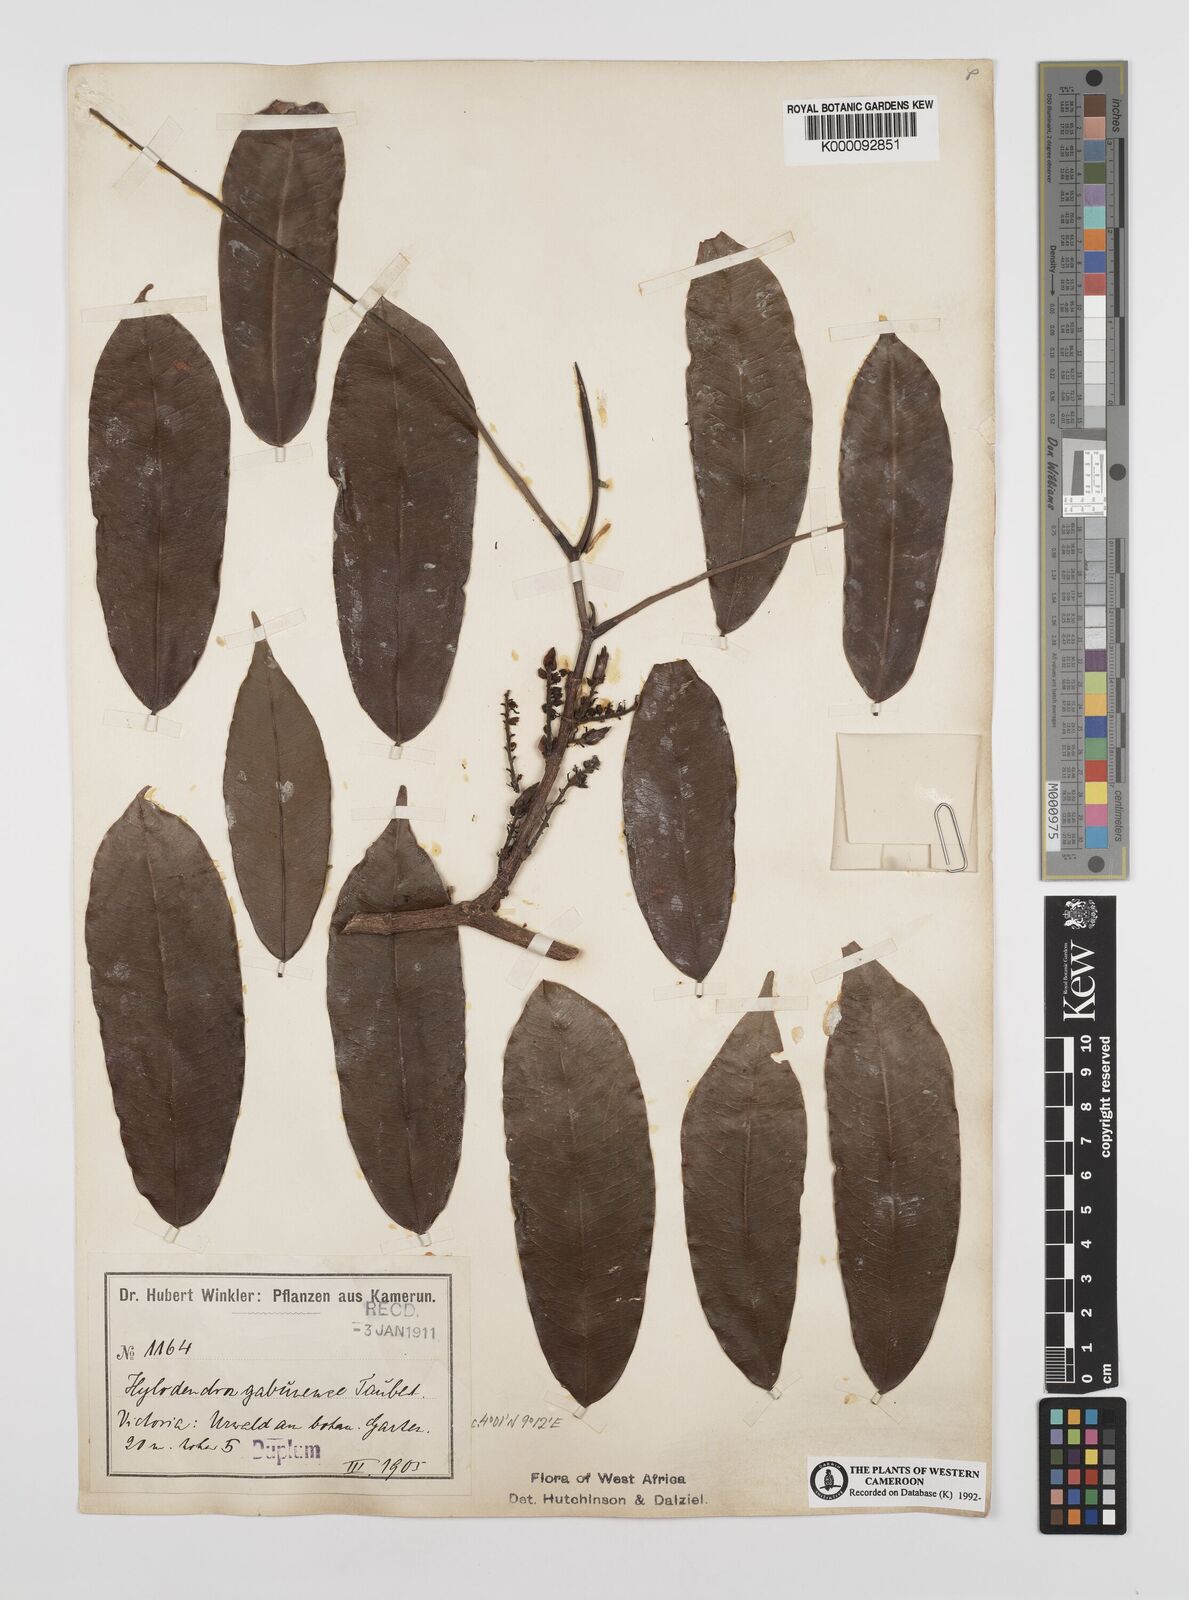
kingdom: Plantae
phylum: Tracheophyta
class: Magnoliopsida
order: Fabales
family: Fabaceae
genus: Hylodendron
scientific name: Hylodendron gabunense
